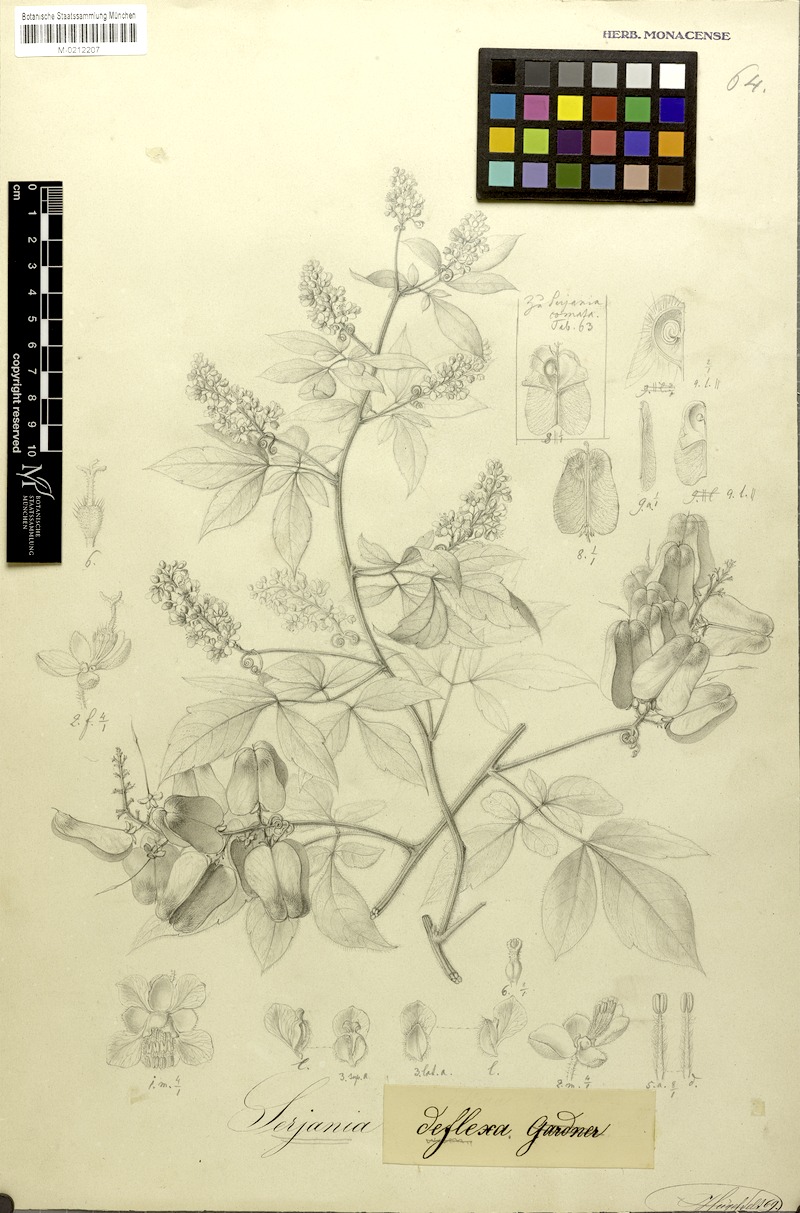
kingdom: Plantae
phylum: Tracheophyta
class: Magnoliopsida
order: Sapindales
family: Sapindaceae
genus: Serjania
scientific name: Serjania deflexa
